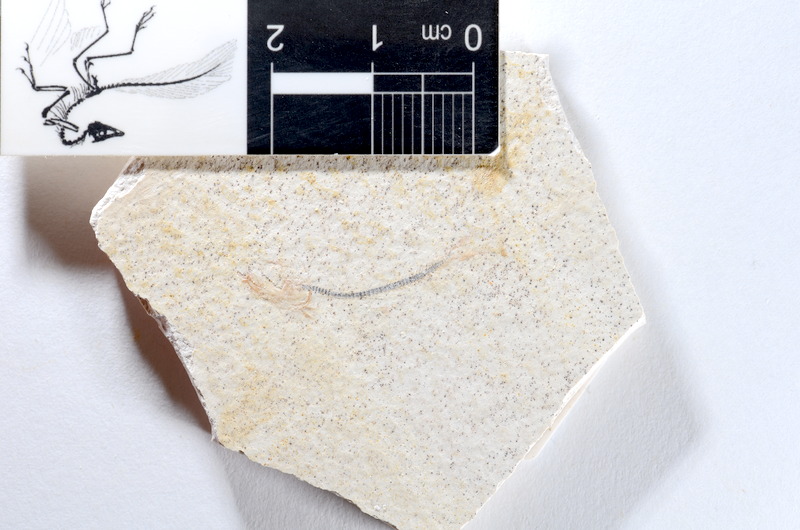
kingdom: Animalia
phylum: Chordata
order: Salmoniformes
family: Orthogonikleithridae
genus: Orthogonikleithrus
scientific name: Orthogonikleithrus hoelli
